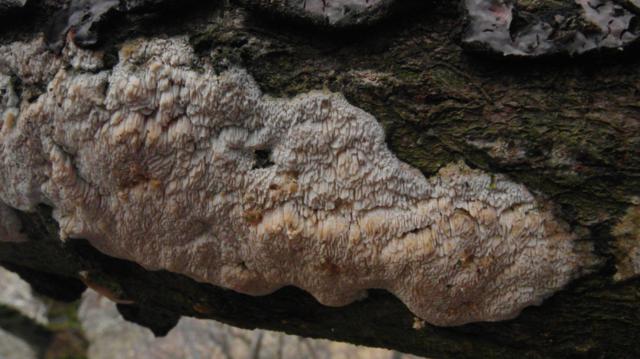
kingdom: Fungi
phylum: Basidiomycota
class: Agaricomycetes
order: Hymenochaetales
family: Schizoporaceae
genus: Schizopora
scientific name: Schizopora paradoxa
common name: hvid tandsvamp
